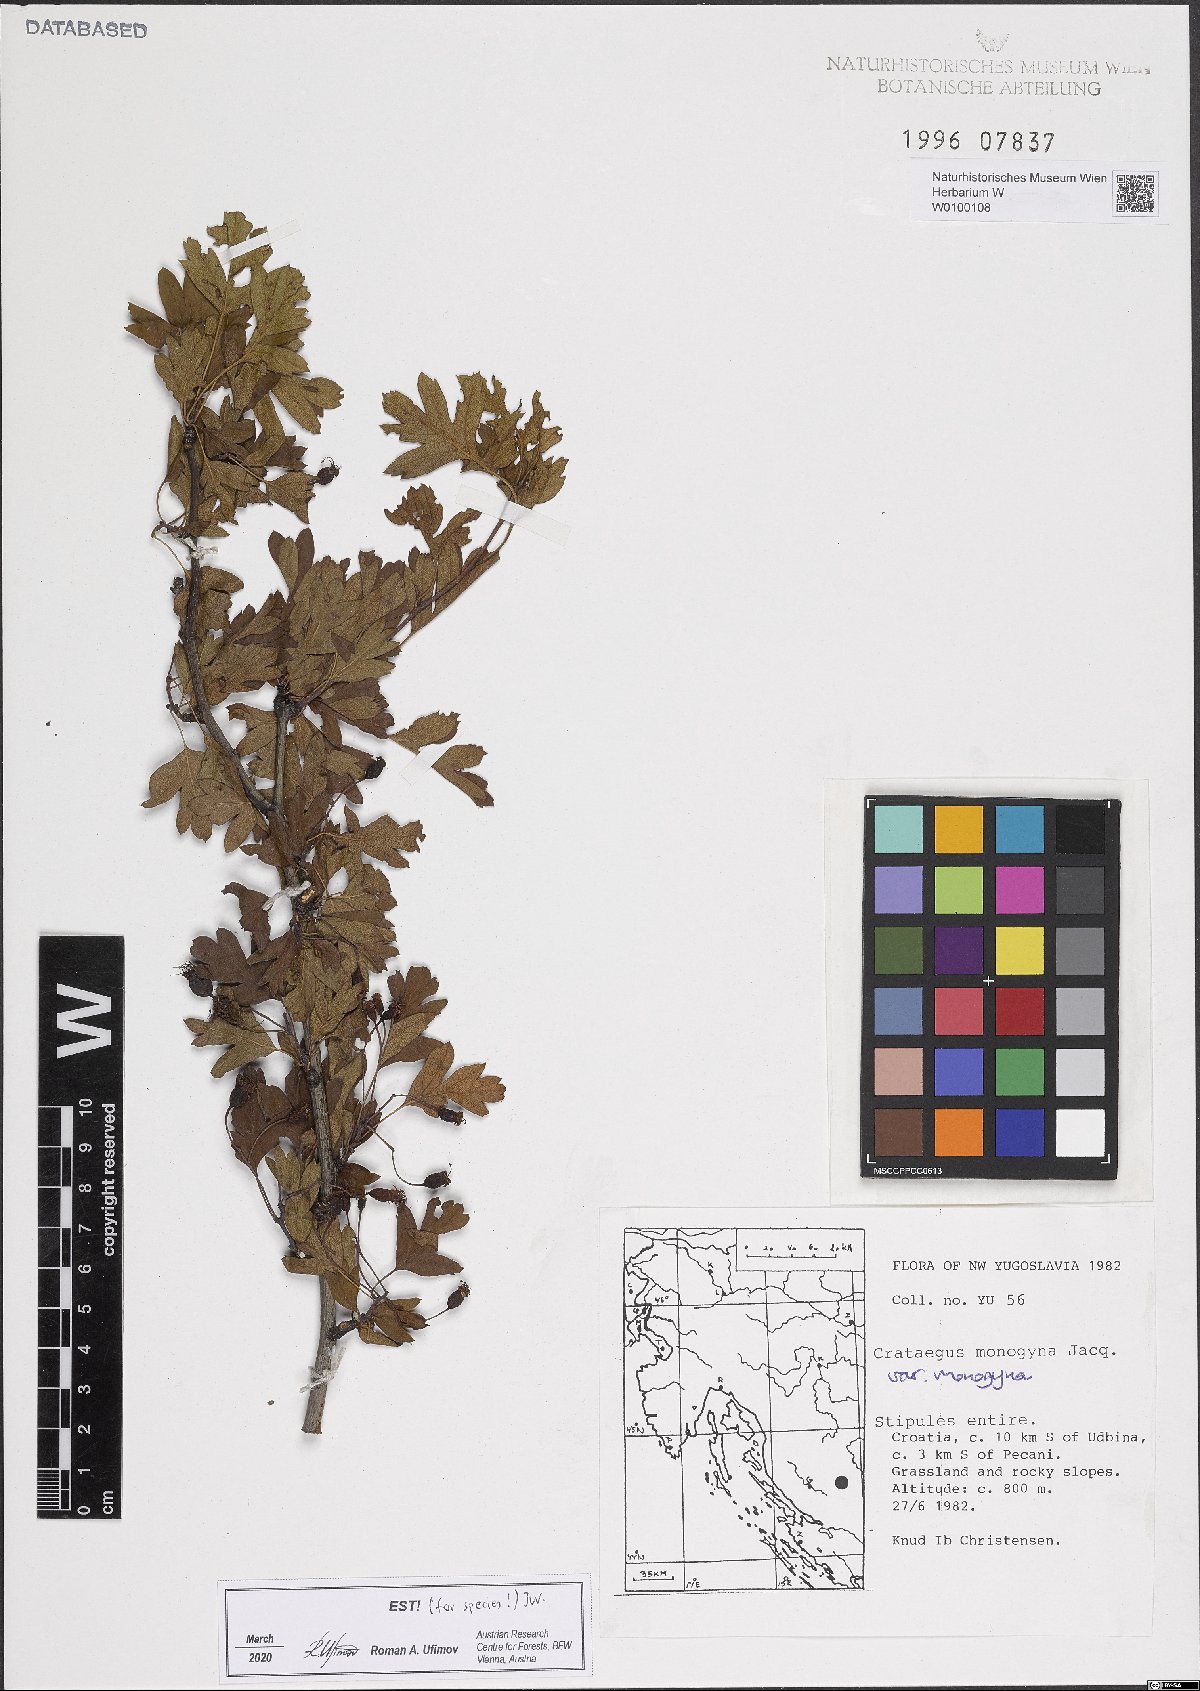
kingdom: Plantae
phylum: Tracheophyta
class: Magnoliopsida
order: Rosales
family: Rosaceae
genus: Crataegus
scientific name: Crataegus monogyna
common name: Hawthorn
